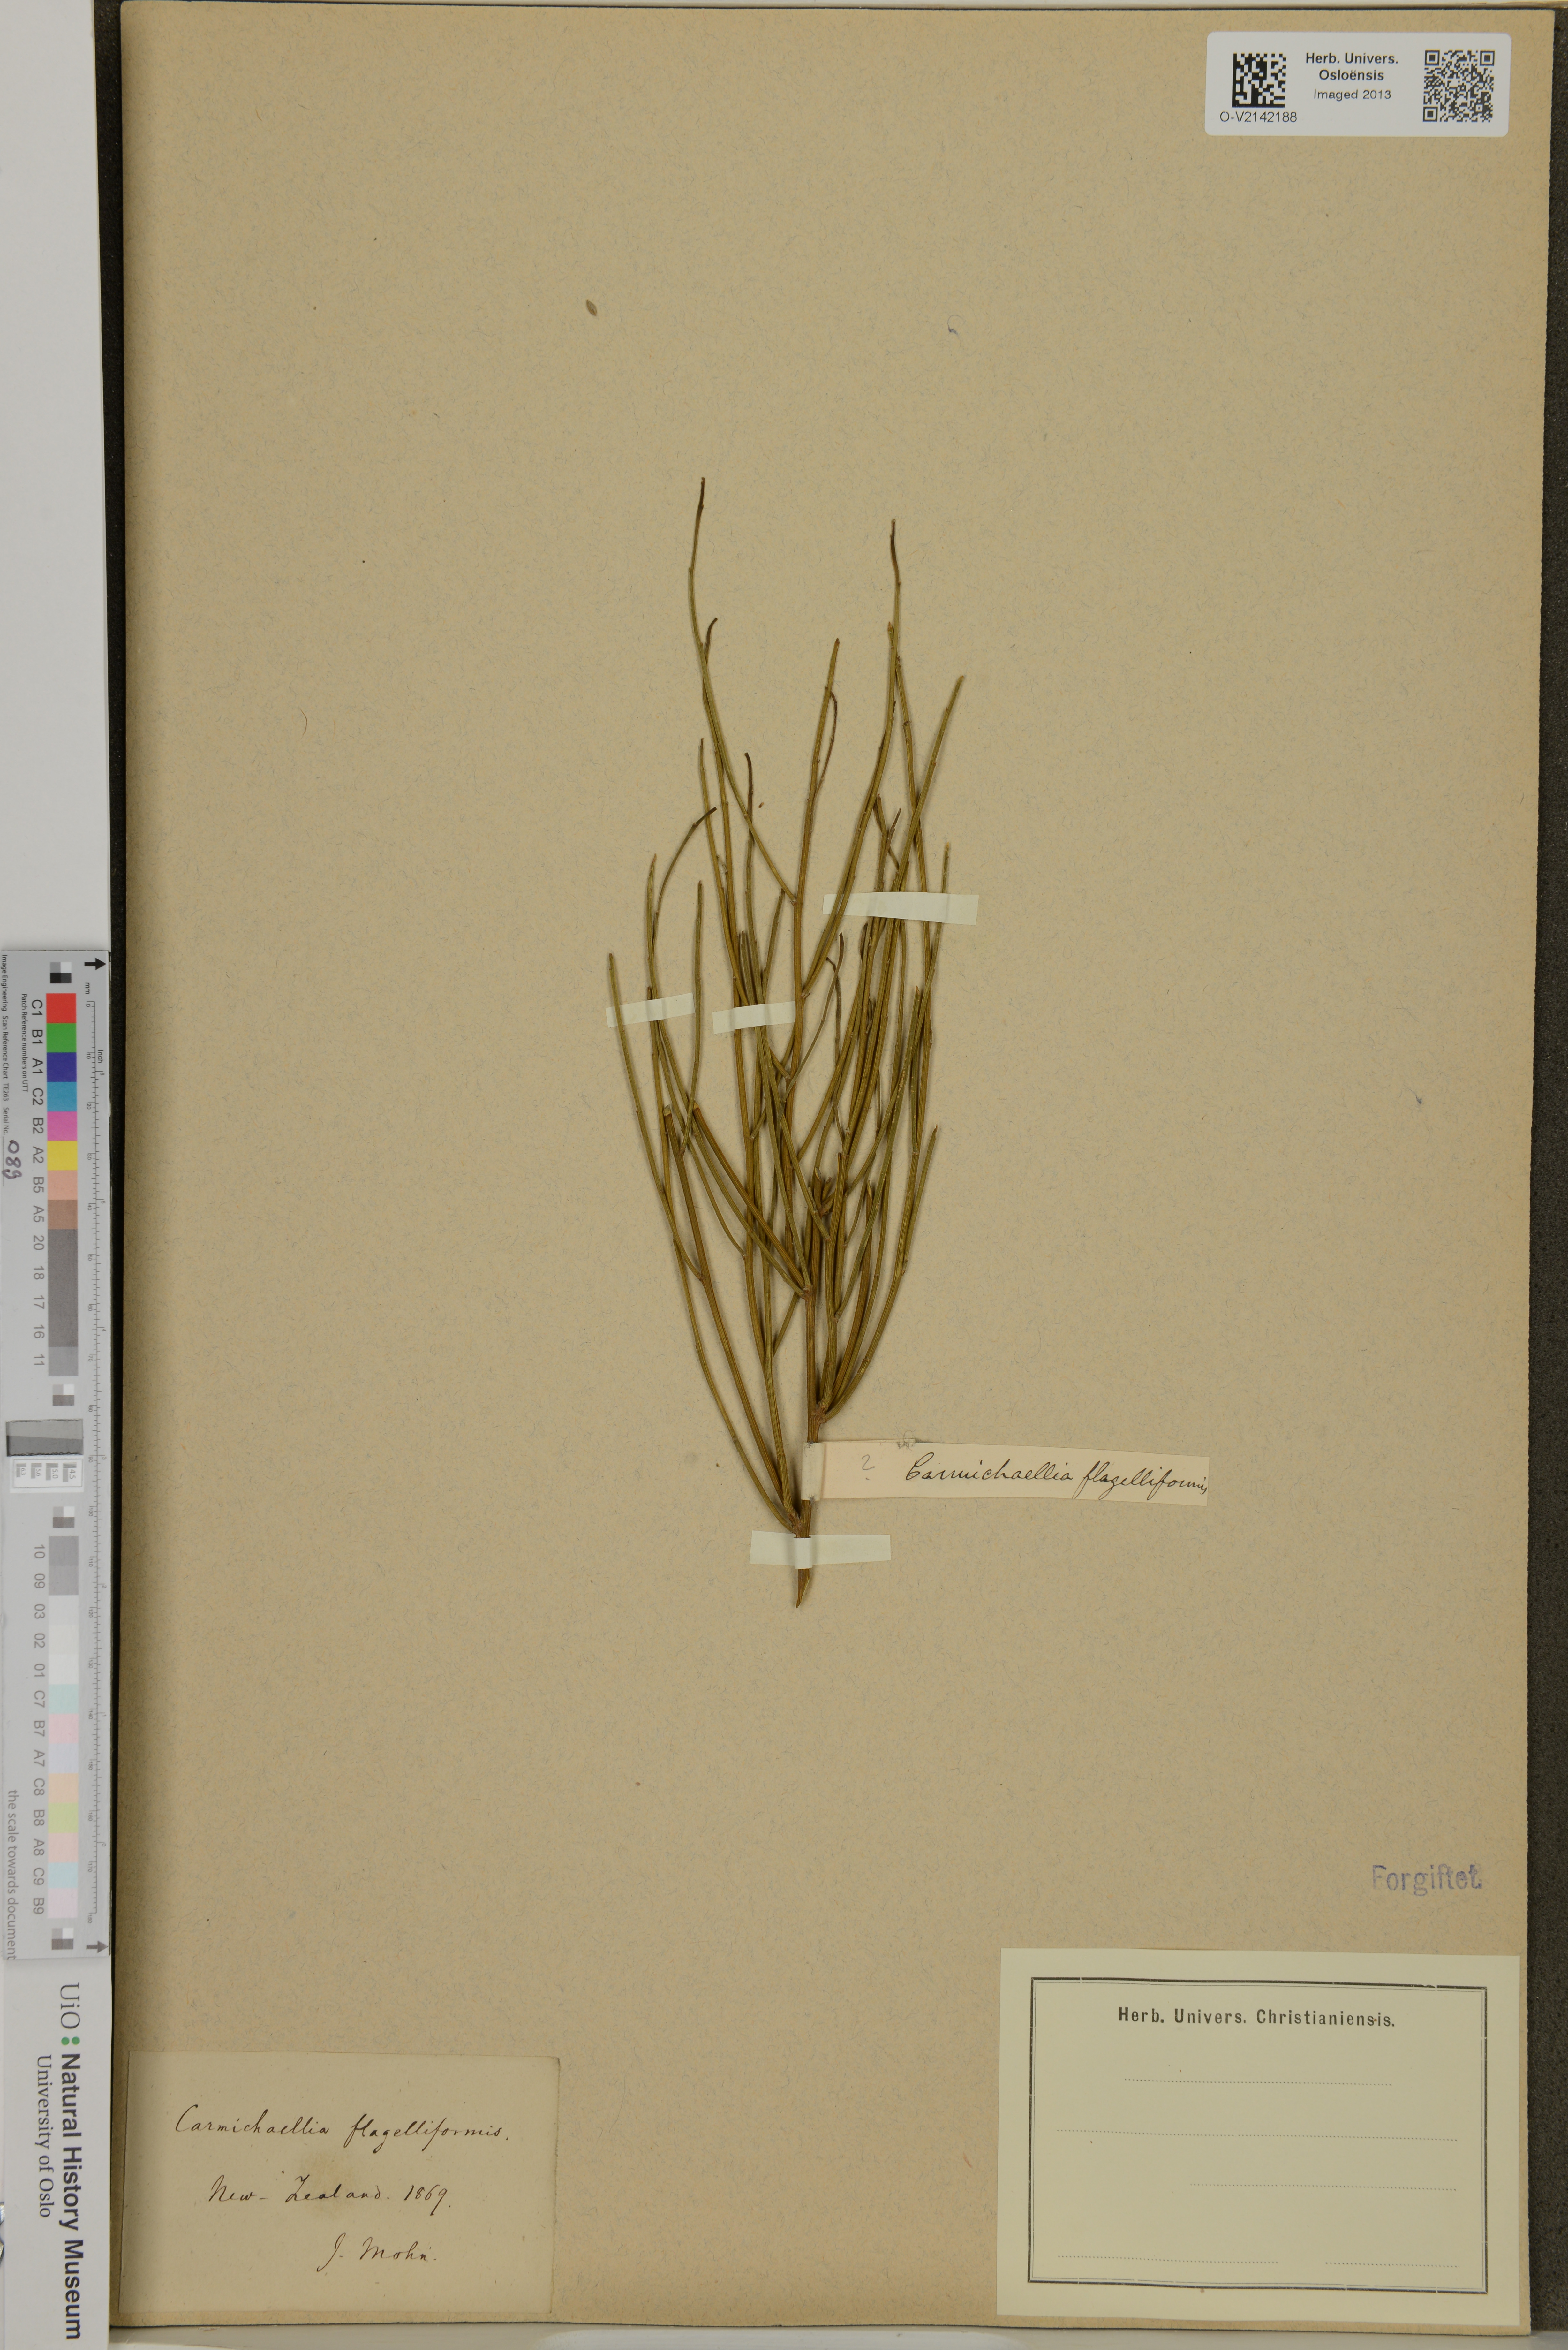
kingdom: Plantae
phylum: Tracheophyta
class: Magnoliopsida
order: Fabales
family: Fabaceae
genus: Carmichaelia
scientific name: Carmichaelia flagelliformis
